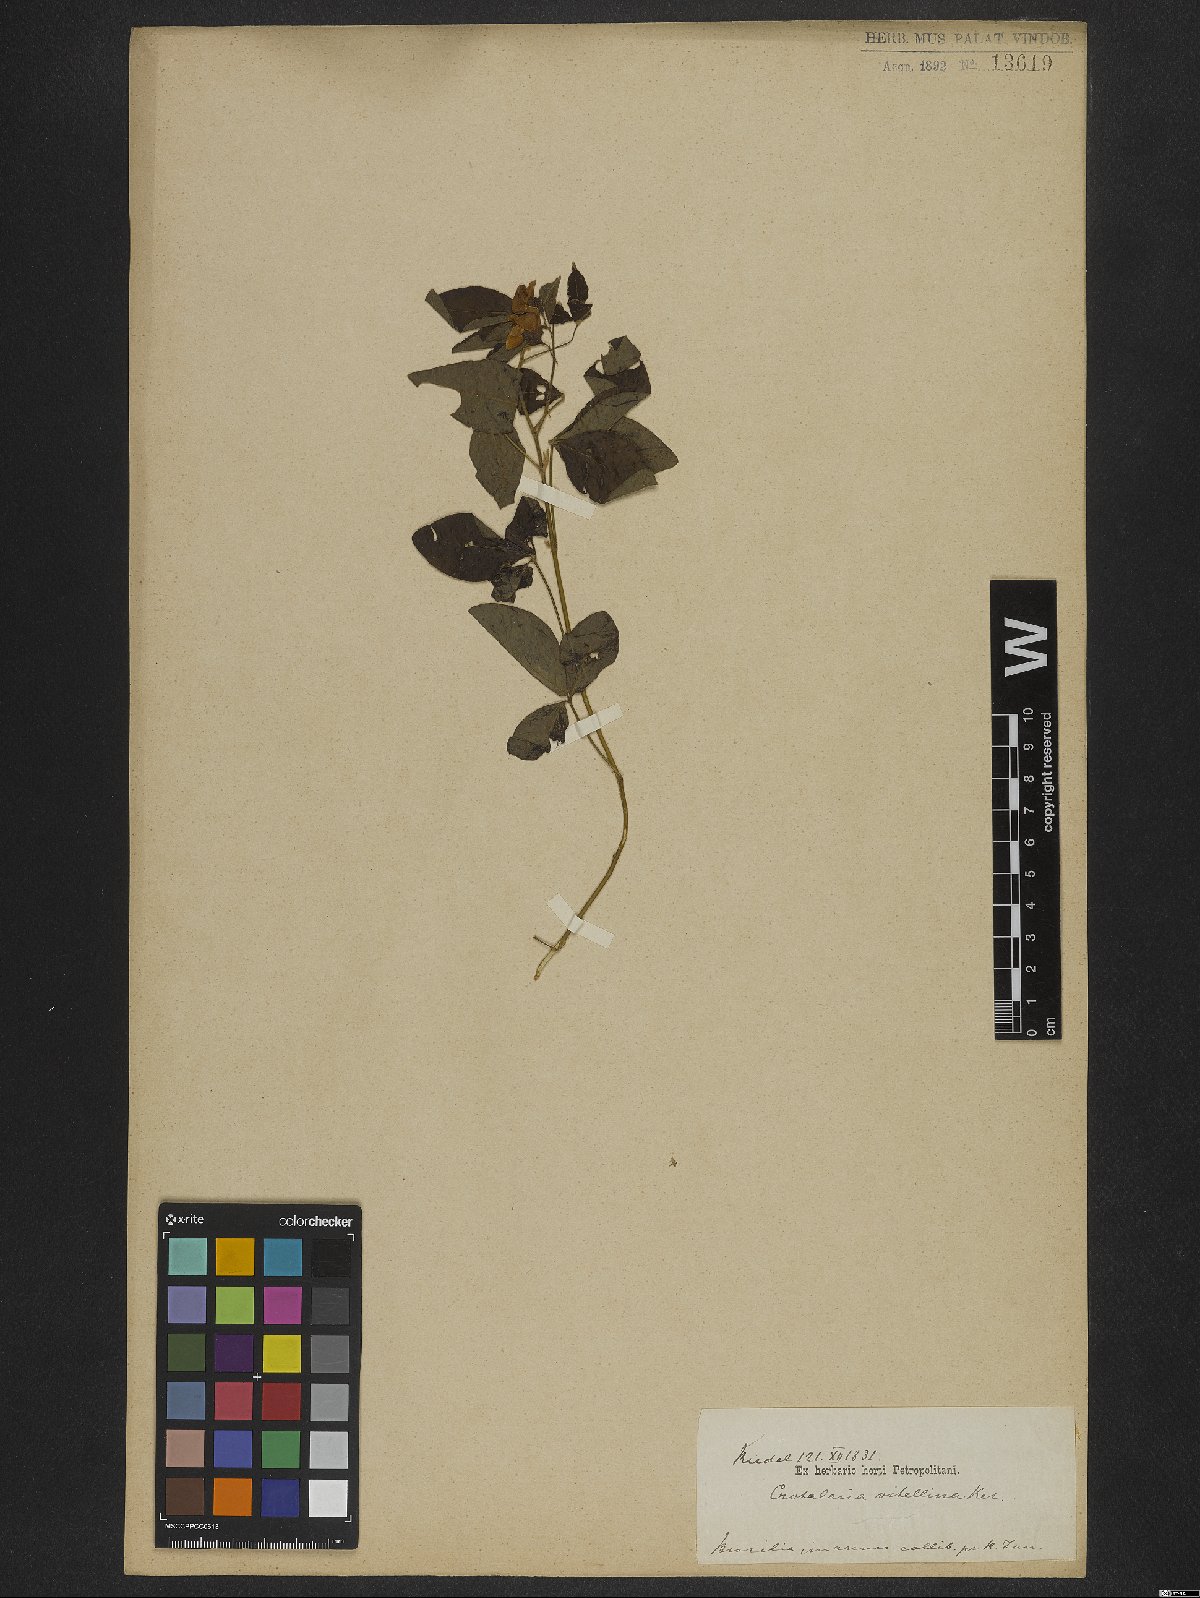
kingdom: Plantae
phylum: Tracheophyta
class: Magnoliopsida
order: Fabales
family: Fabaceae
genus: Crotalaria
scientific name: Crotalaria vitellina
